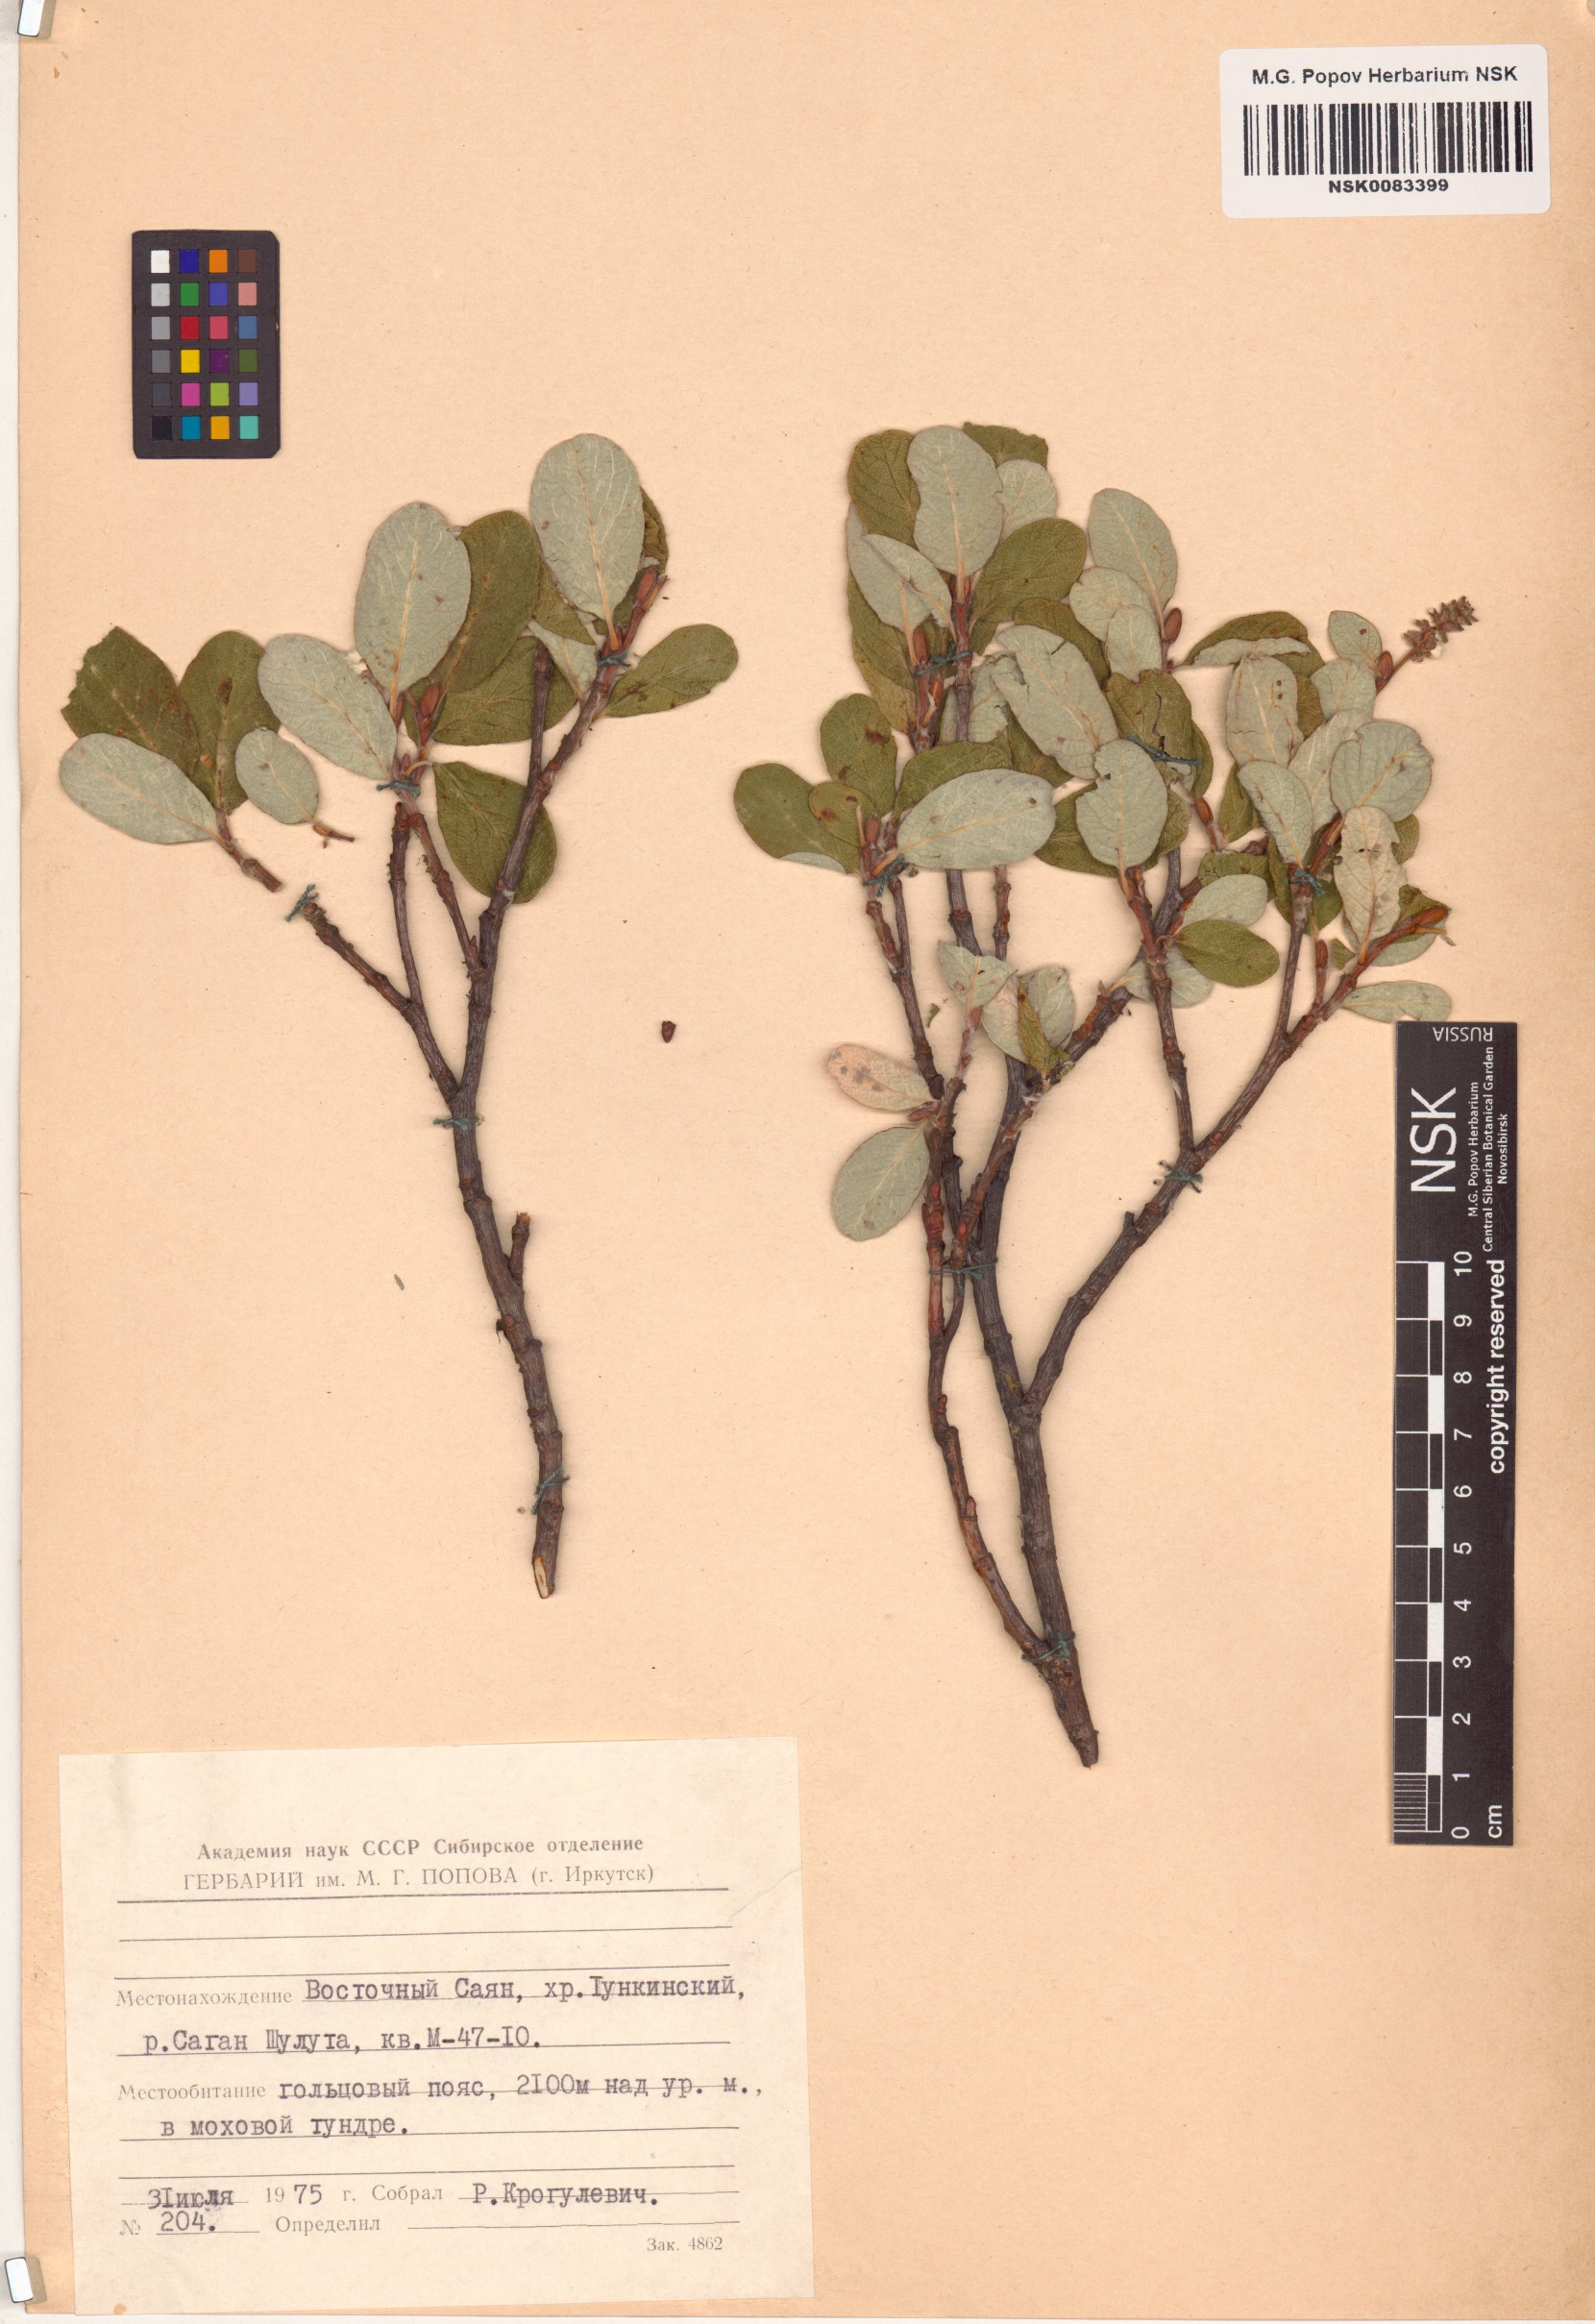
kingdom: Plantae
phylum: Tracheophyta
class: Magnoliopsida
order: Malpighiales
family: Salicaceae
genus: Salix
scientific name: Salix vestita
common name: Hairy willow
